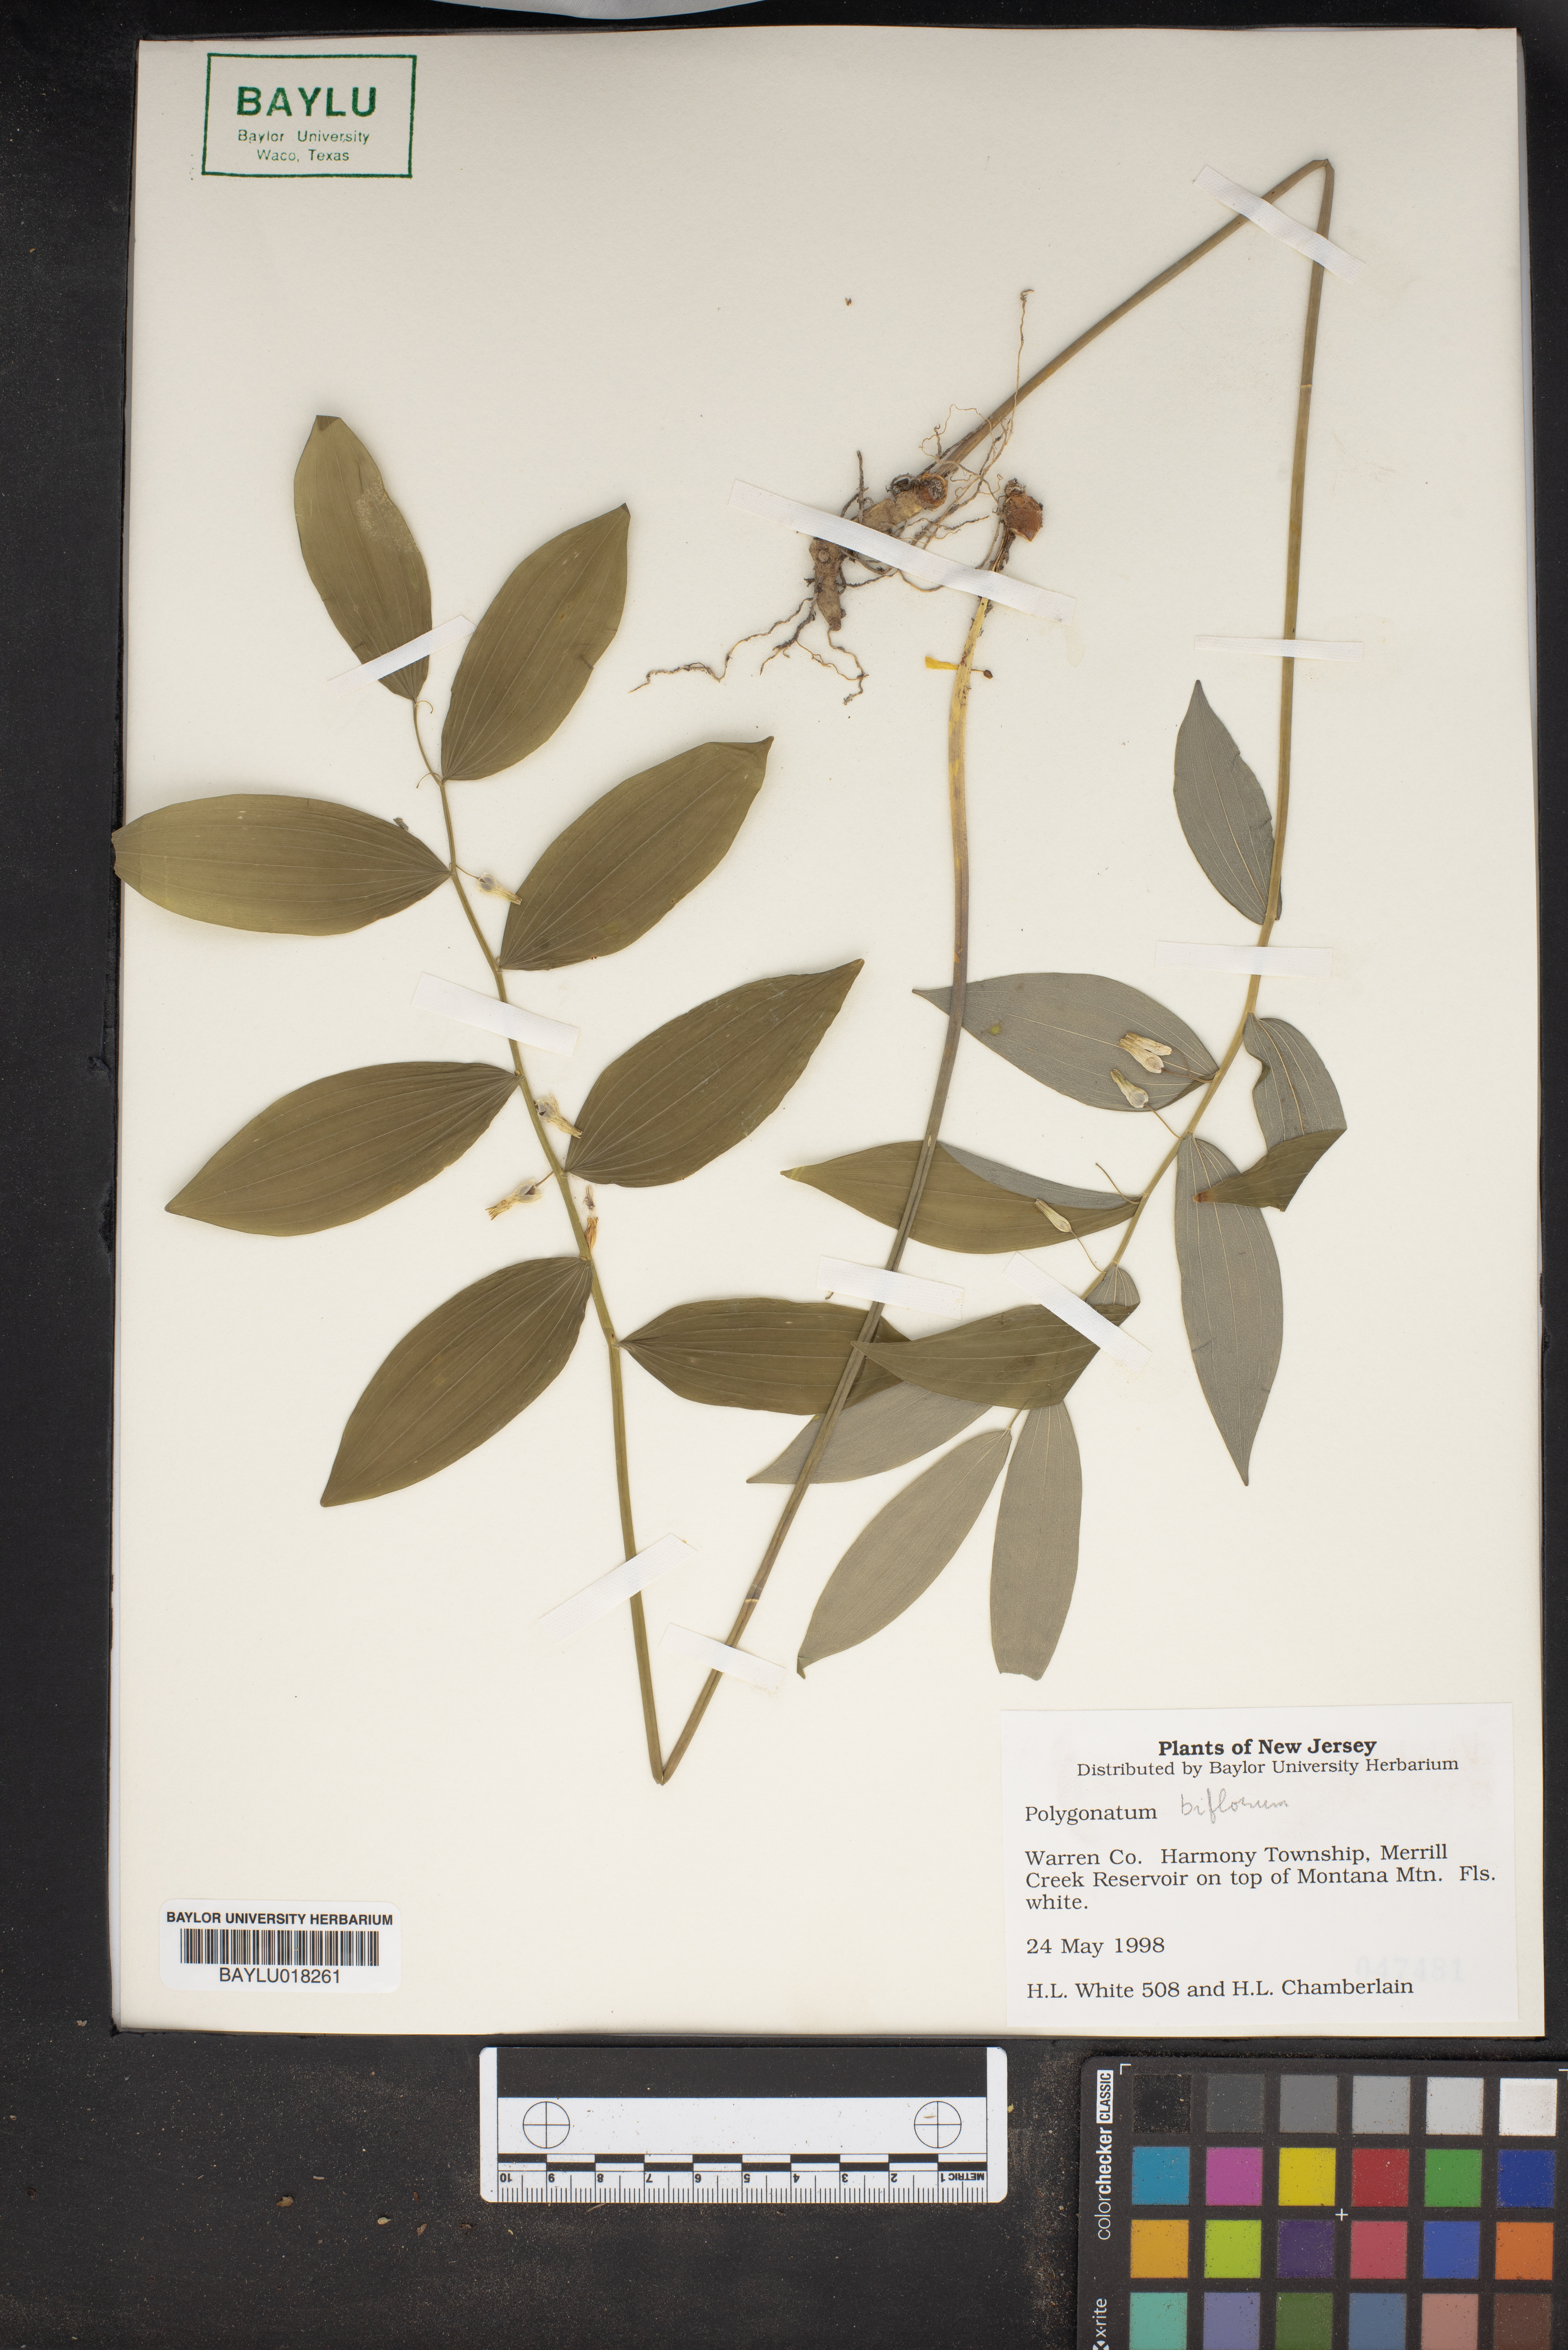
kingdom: Plantae
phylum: Tracheophyta
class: Liliopsida
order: Asparagales
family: Asparagaceae
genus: Polygonatum
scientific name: Polygonatum biflorum
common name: American solomon's-seal
